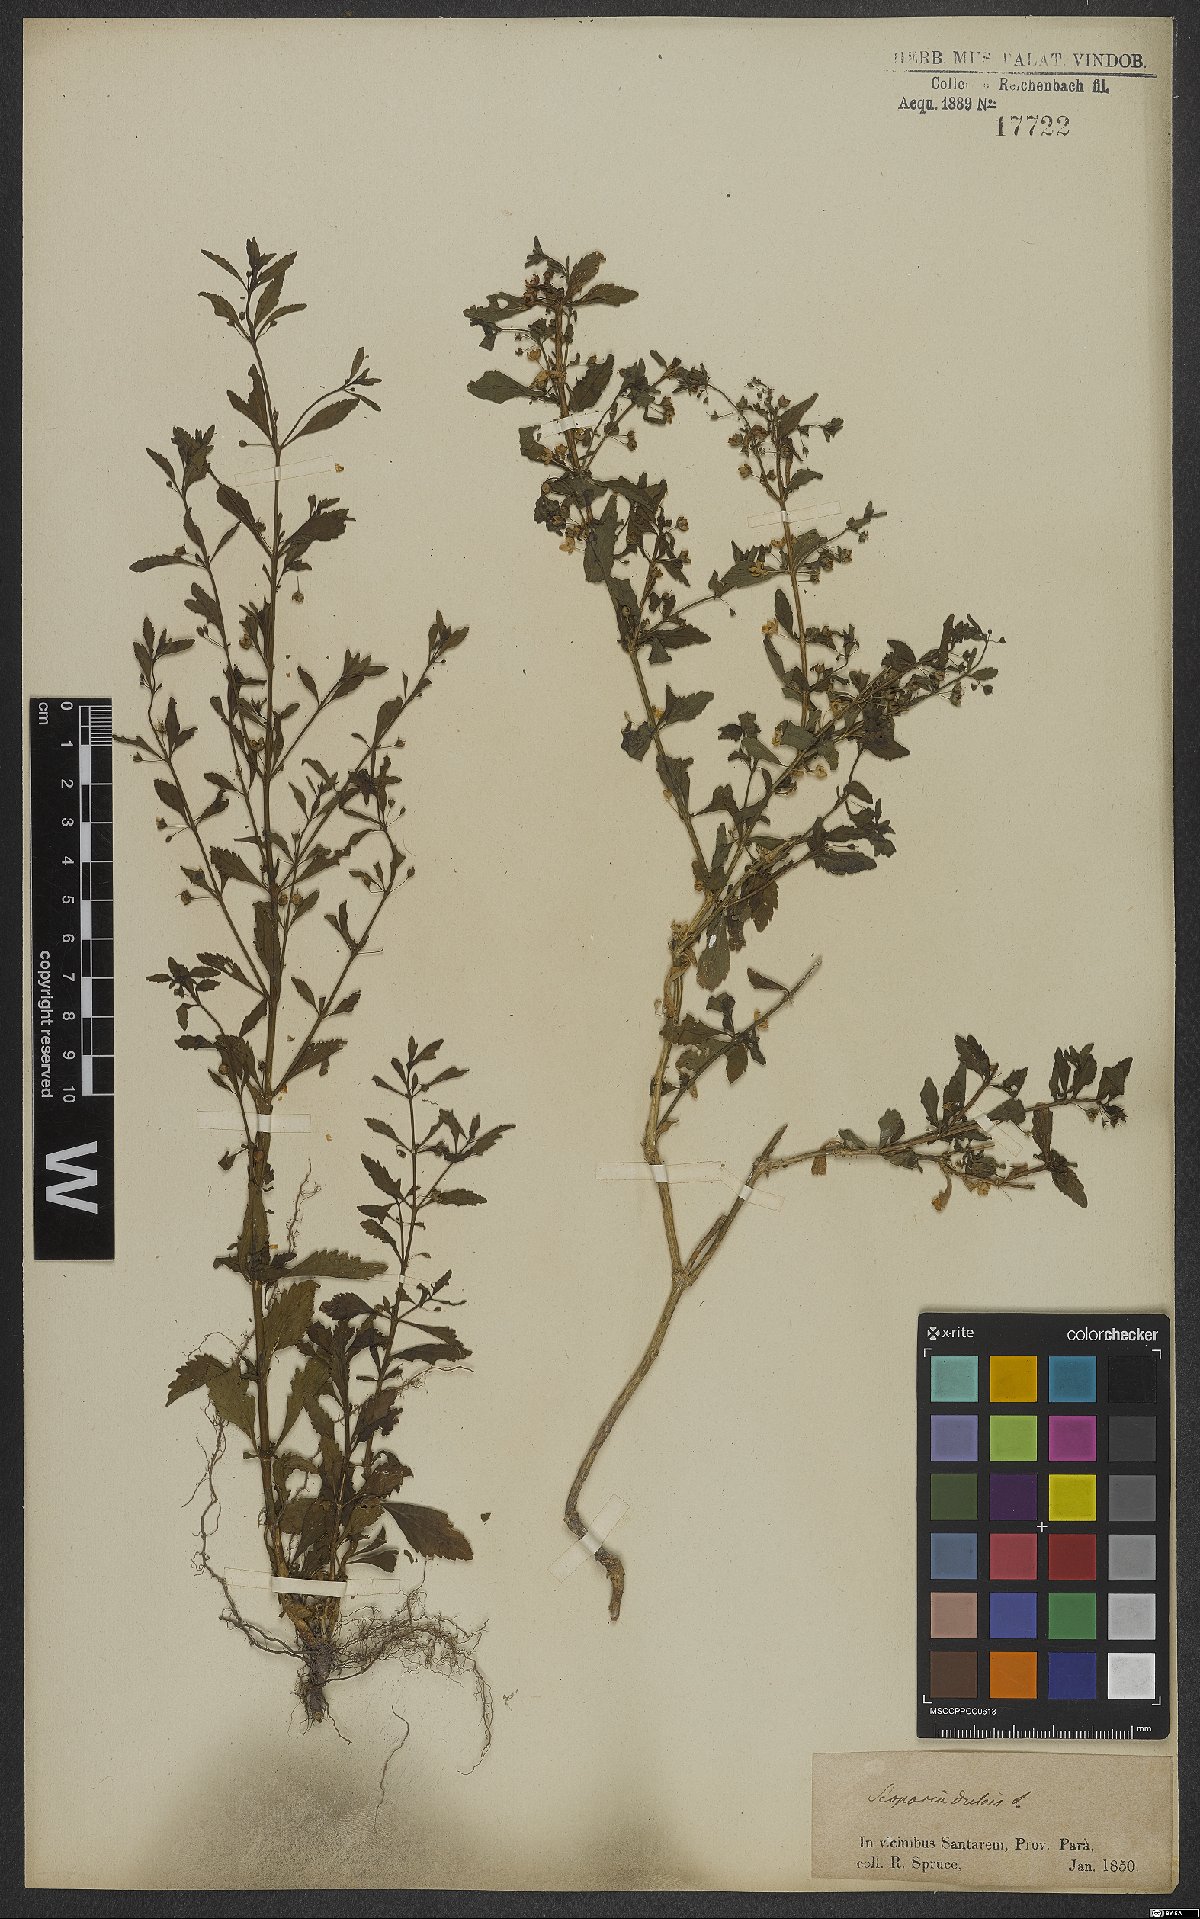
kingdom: Plantae
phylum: Tracheophyta
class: Magnoliopsida
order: Lamiales
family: Plantaginaceae
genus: Scoparia
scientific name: Scoparia dulcis
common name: Scoparia-weed
